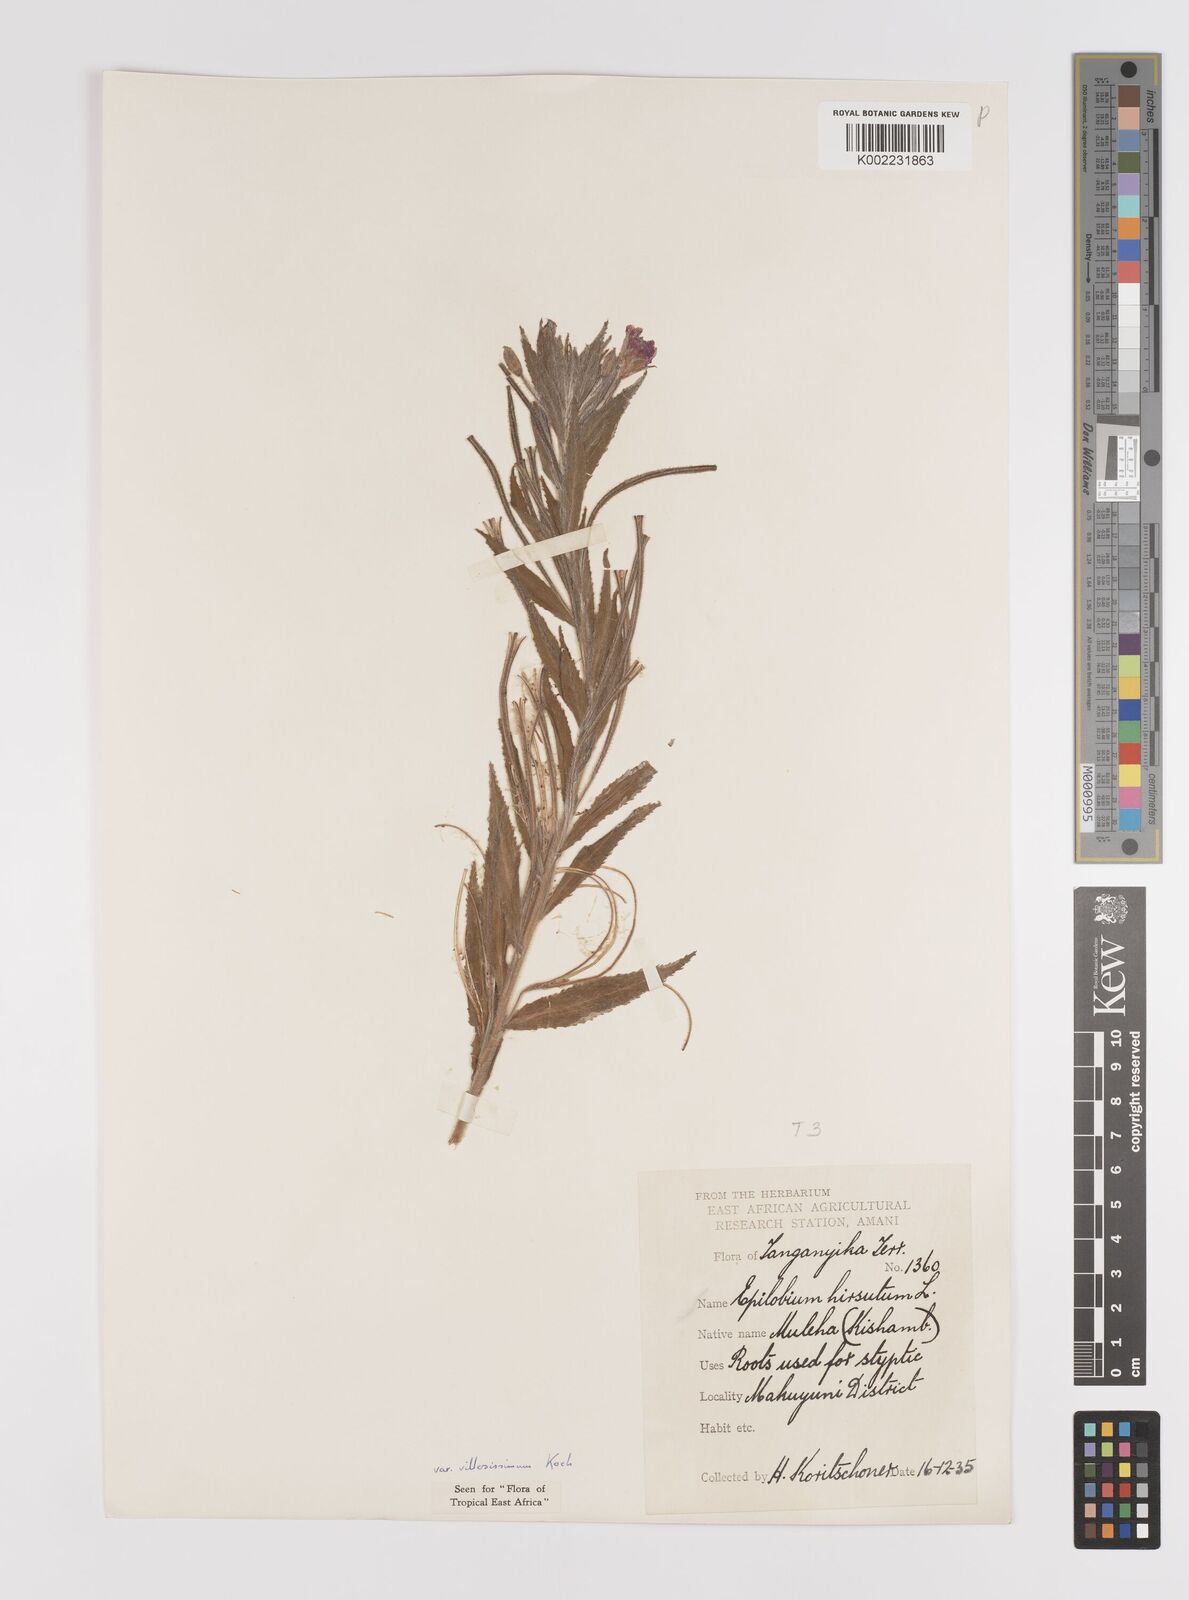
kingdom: Plantae
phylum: Tracheophyta
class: Magnoliopsida
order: Myrtales
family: Onagraceae
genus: Epilobium
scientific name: Epilobium hirsutum
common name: Great willowherb
